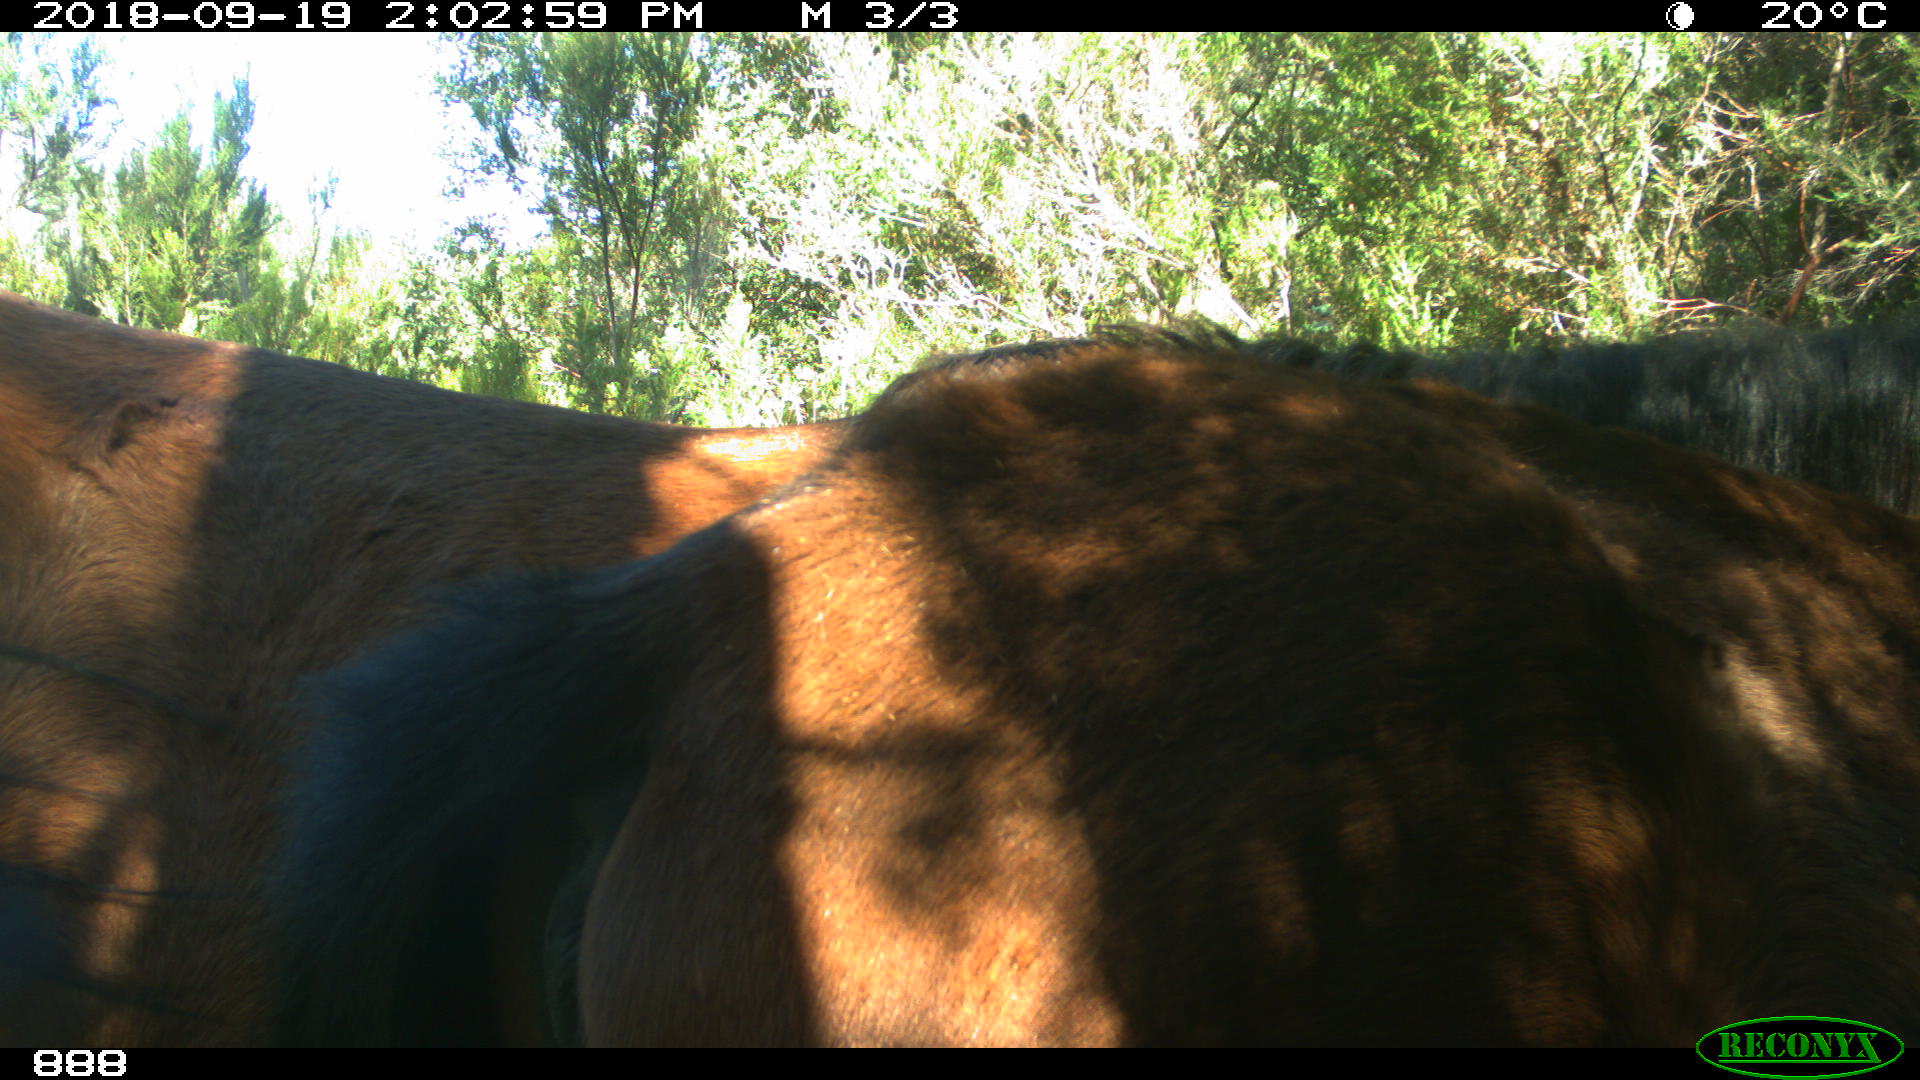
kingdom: Animalia
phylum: Chordata
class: Mammalia
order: Perissodactyla
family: Equidae
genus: Equus
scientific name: Equus caballus
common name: Horse
